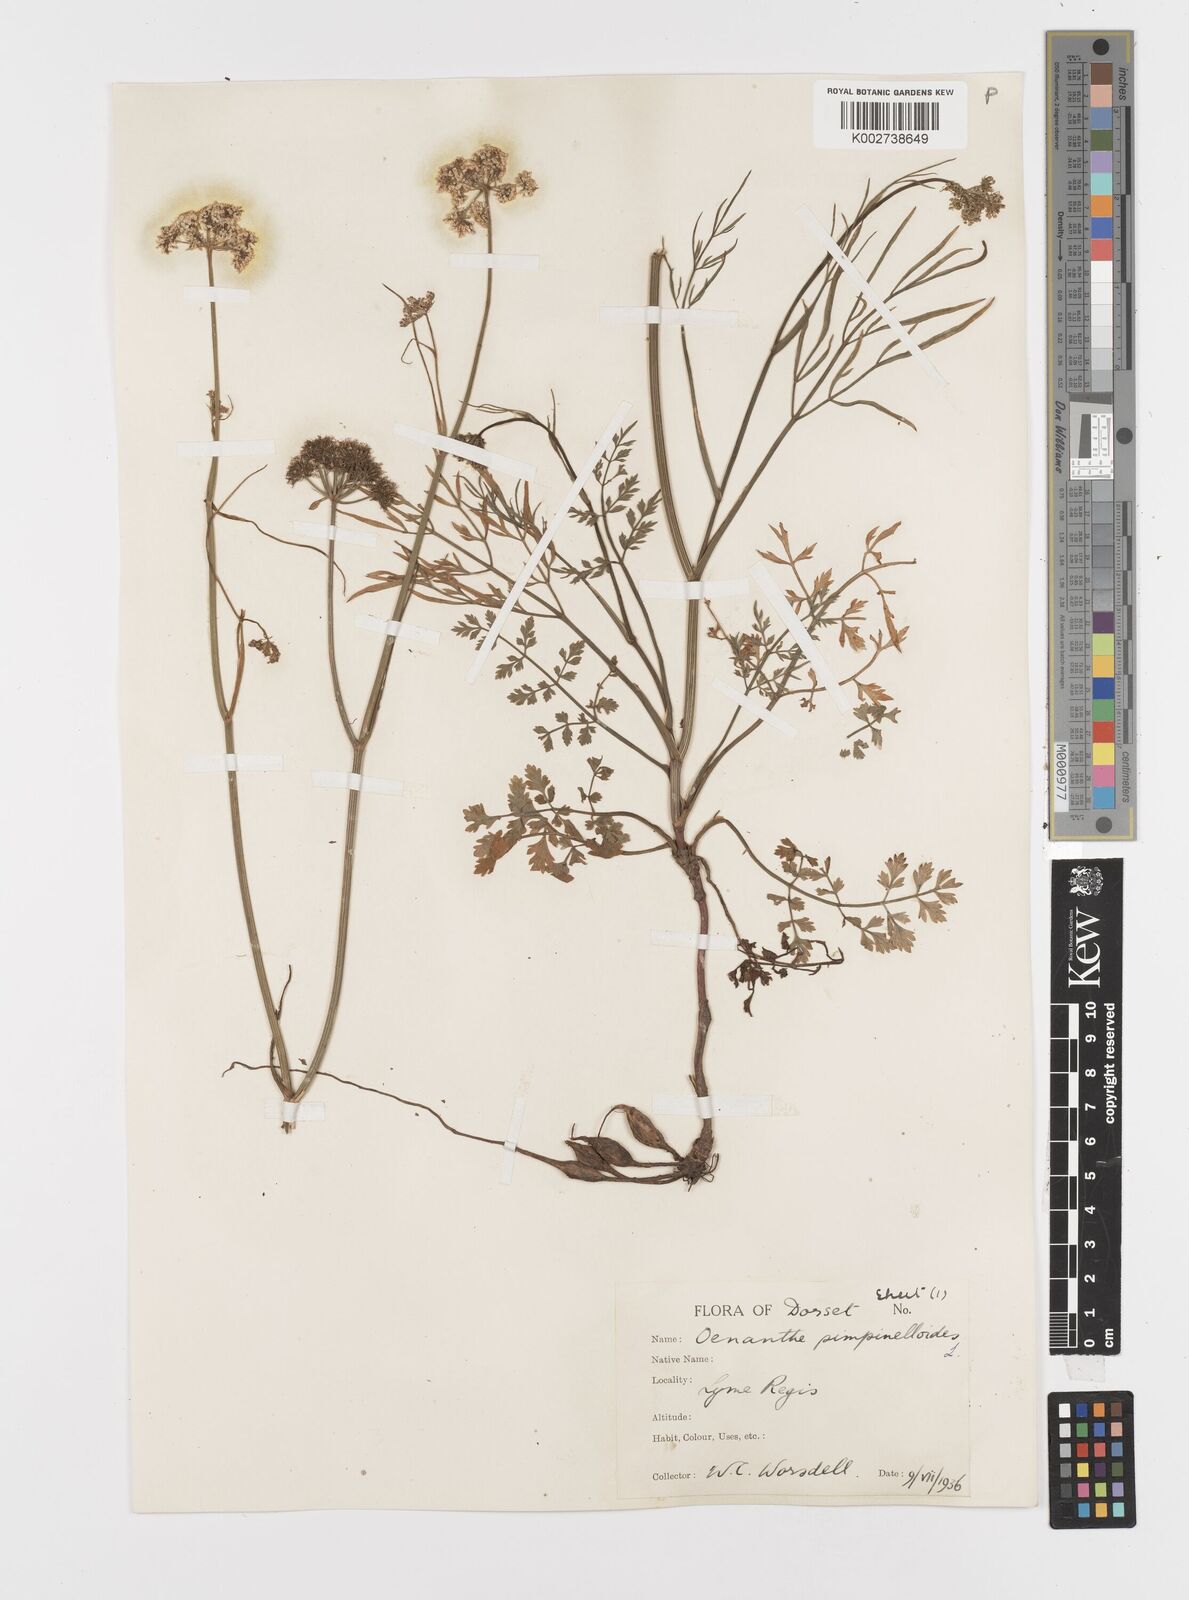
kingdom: Plantae
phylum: Tracheophyta
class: Magnoliopsida
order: Apiales
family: Apiaceae
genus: Oenanthe
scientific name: Oenanthe pimpinelloides
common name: Corky-fruited water-dropwort
